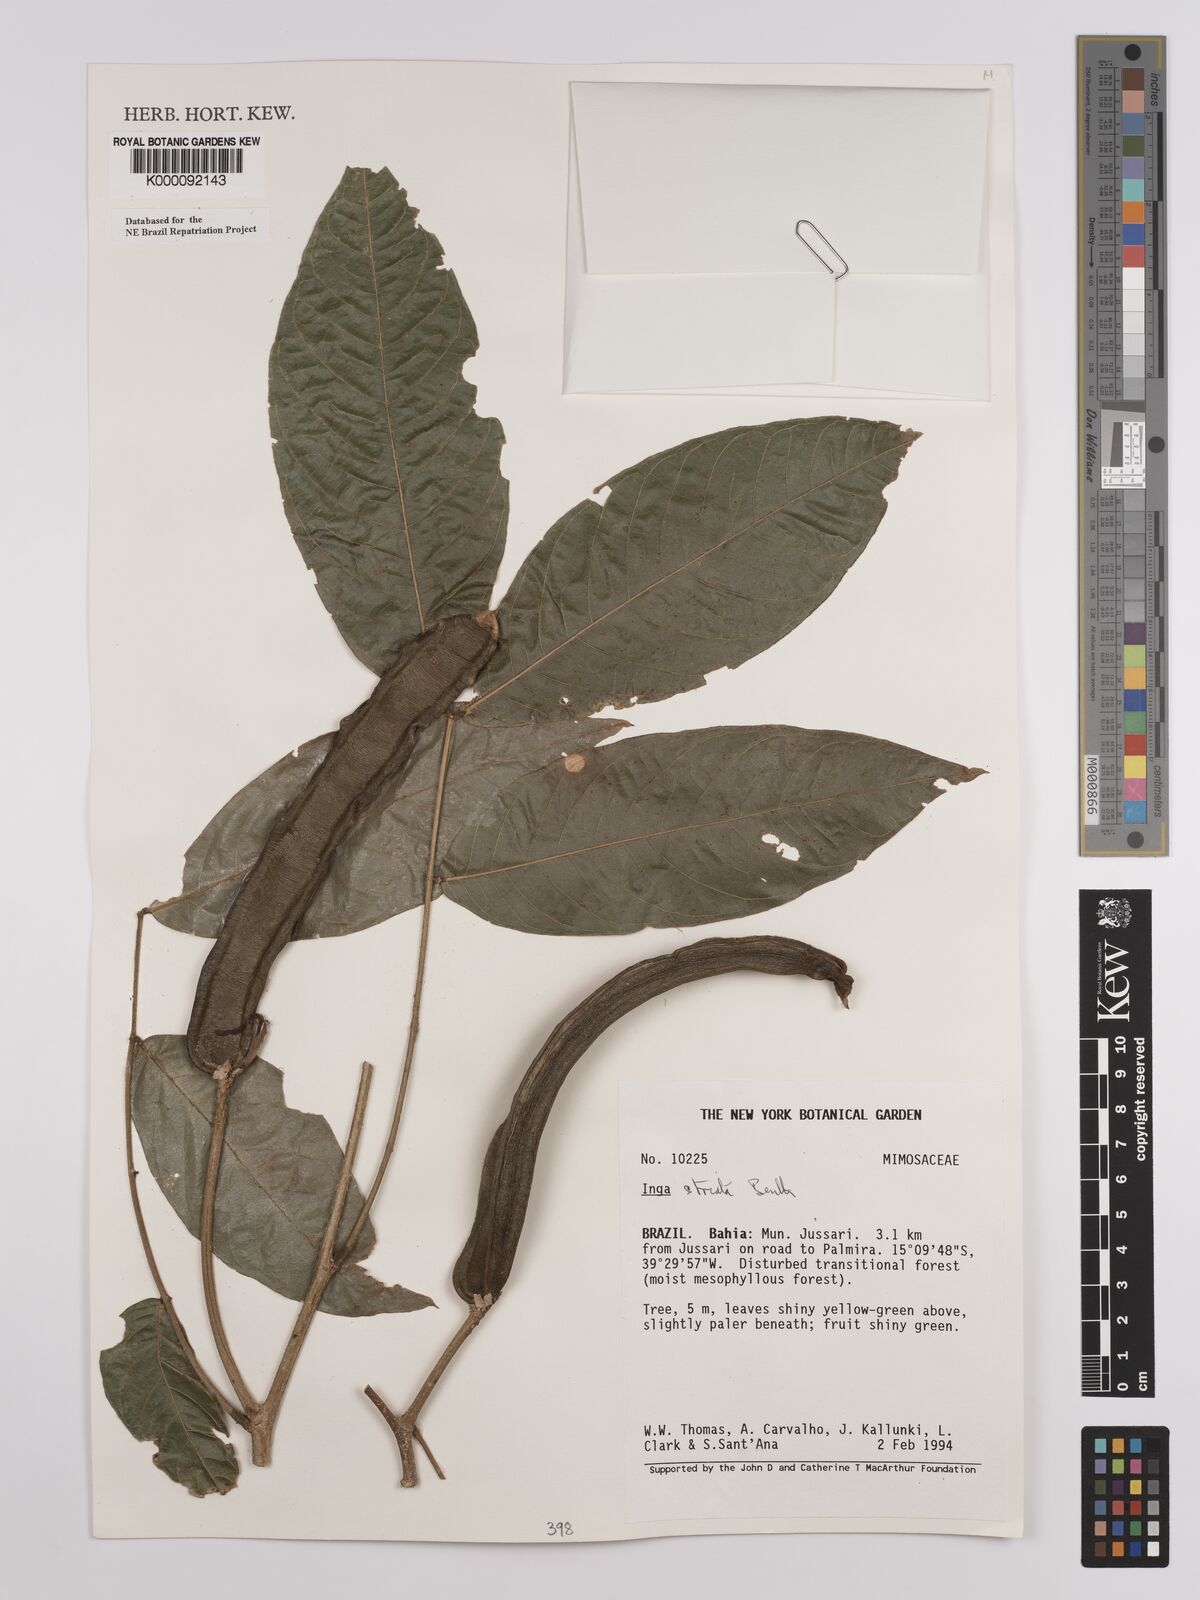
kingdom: Plantae
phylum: Tracheophyta
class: Magnoliopsida
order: Fabales
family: Fabaceae
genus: Inga
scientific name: Inga striata
